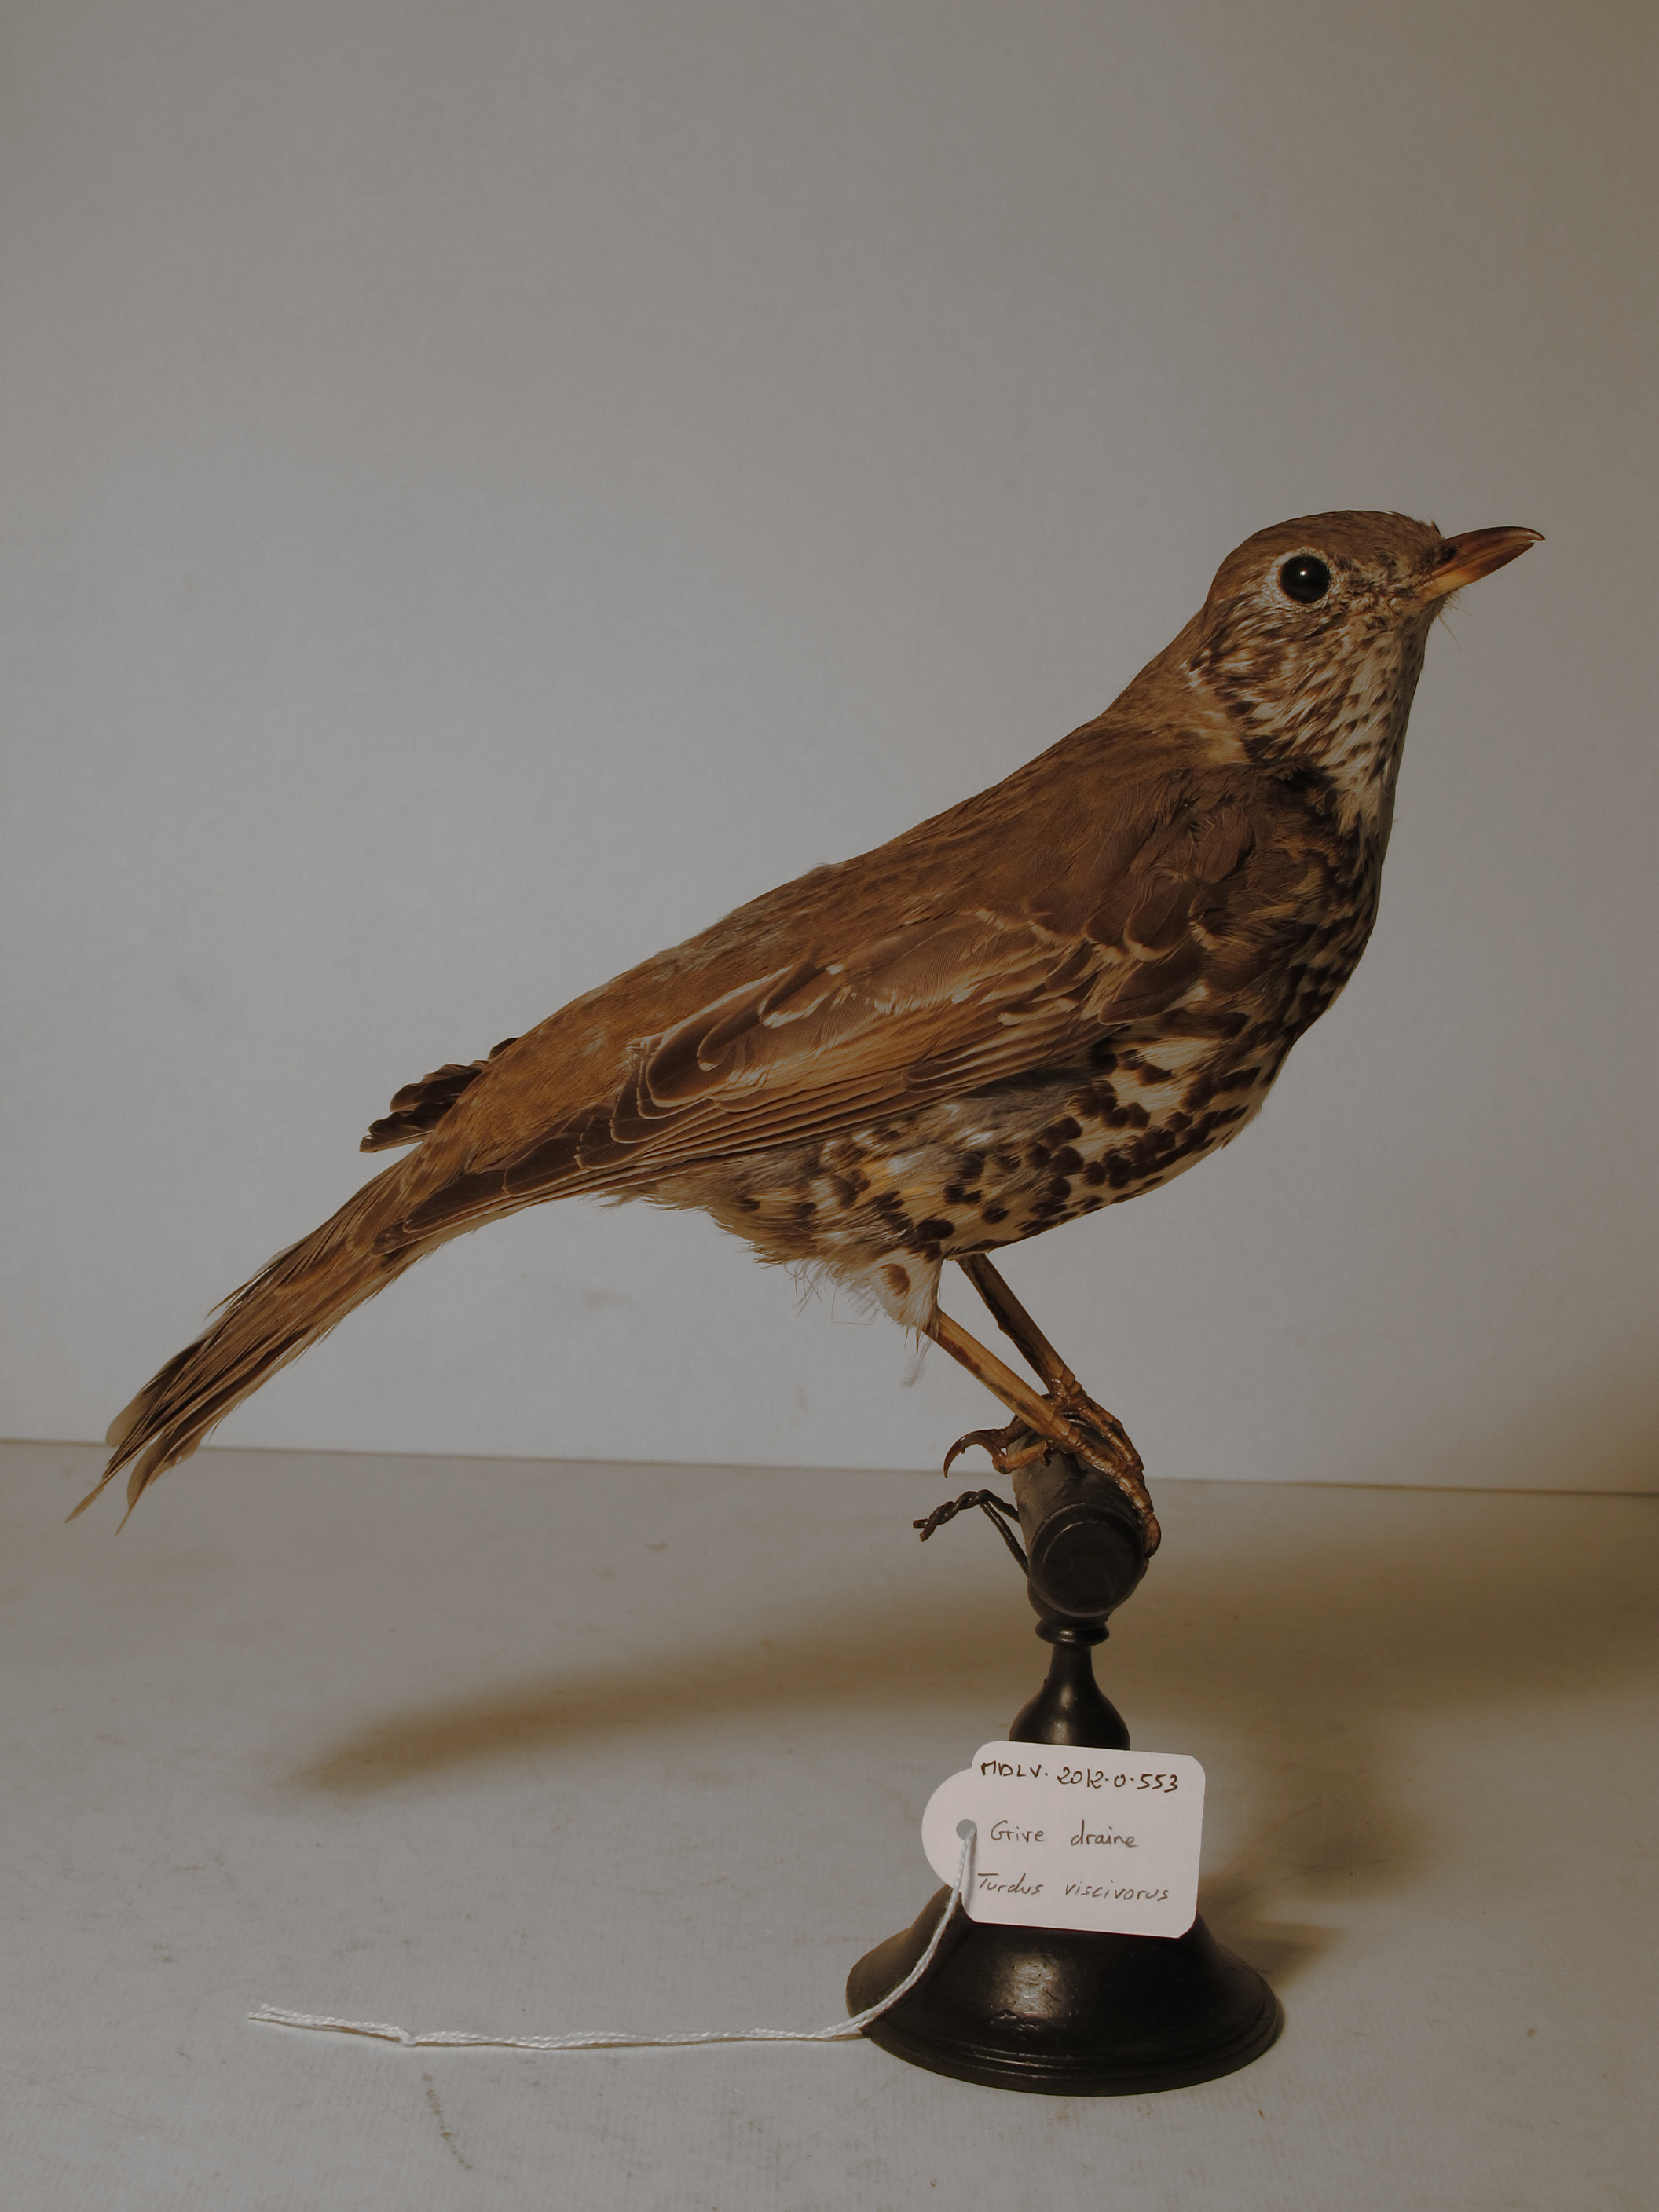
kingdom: Animalia
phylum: Chordata
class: Aves
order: Passeriformes
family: Turdidae
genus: Turdus
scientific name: Turdus viscivorus
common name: Mistle Thrush
